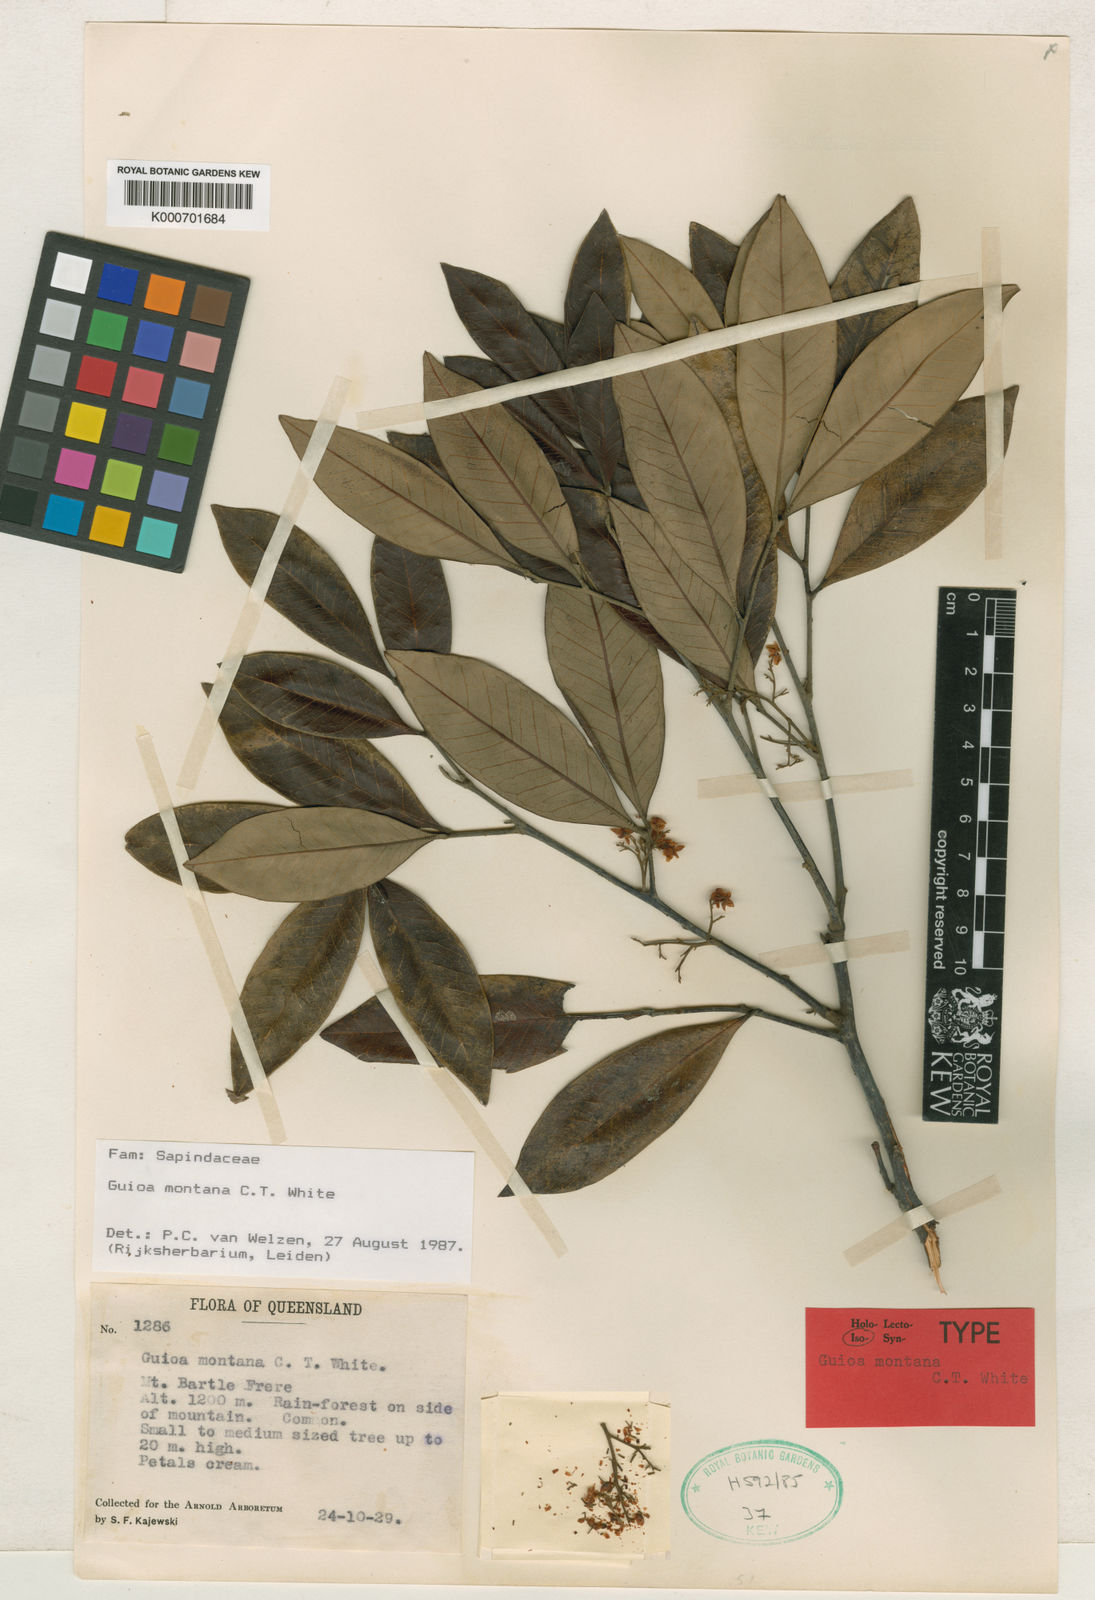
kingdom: Plantae
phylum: Tracheophyta
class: Magnoliopsida
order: Sapindales
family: Sapindaceae
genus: Guioa
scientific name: Guioa montana
